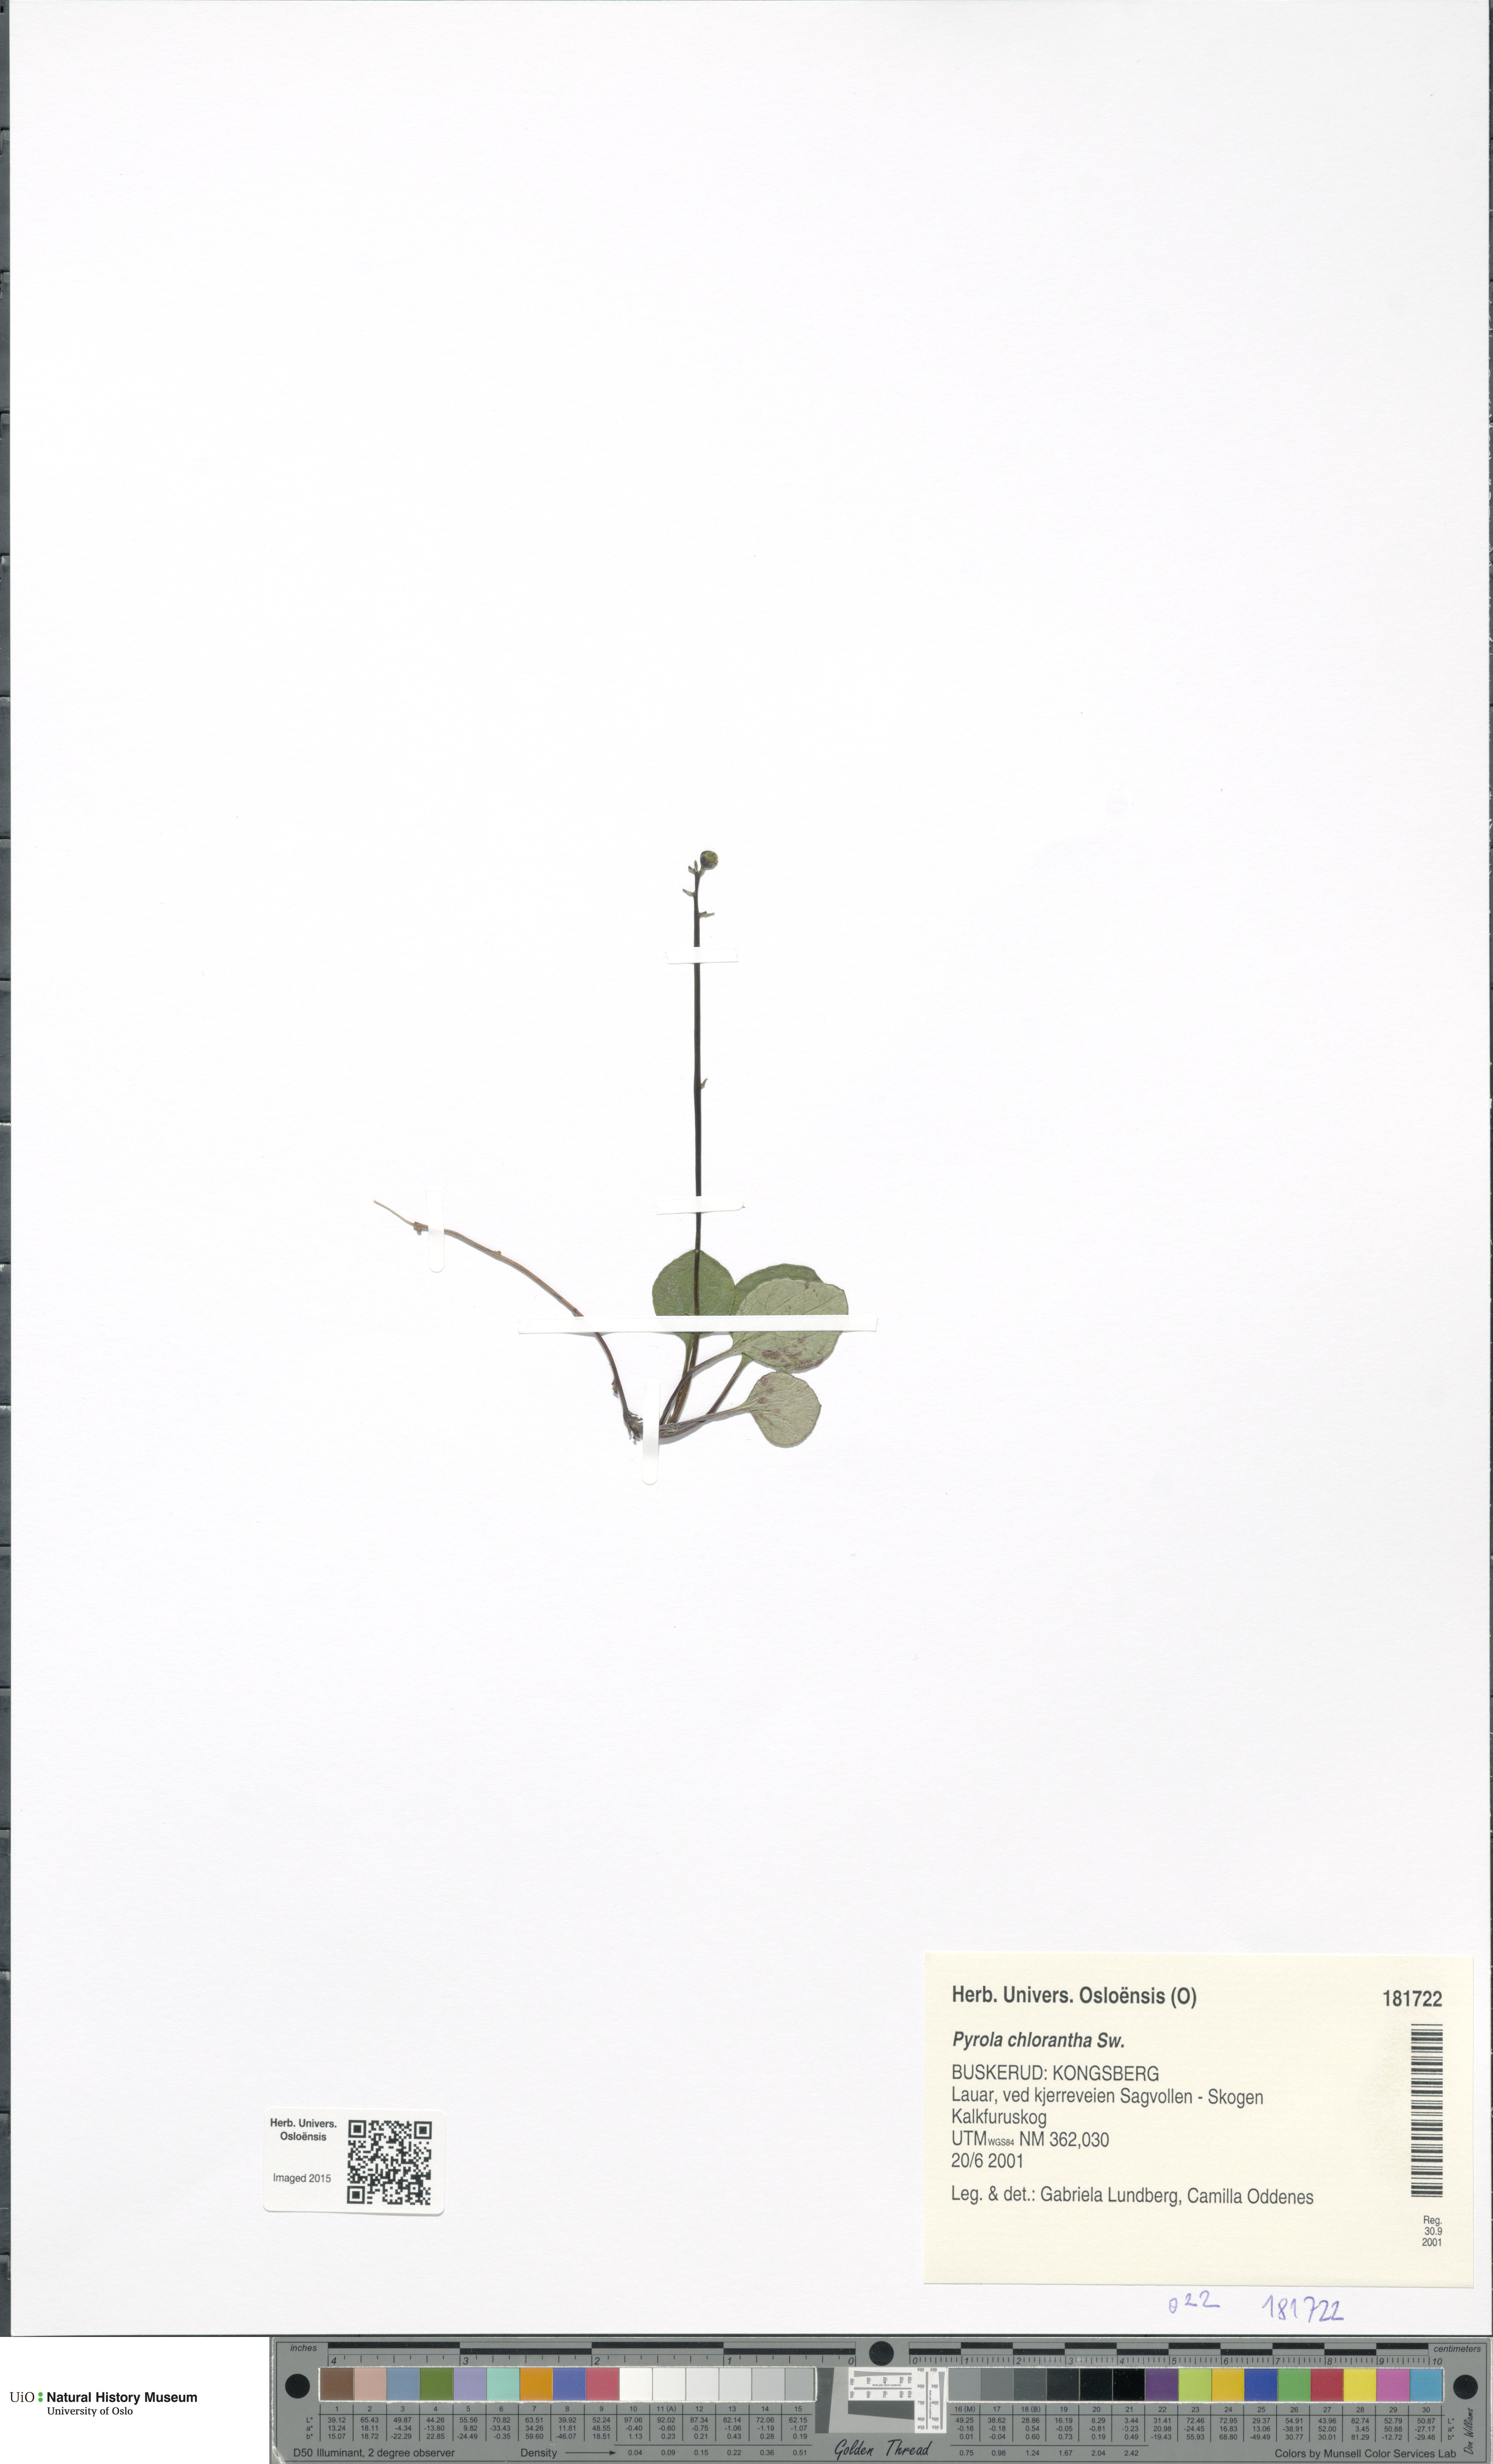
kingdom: Plantae
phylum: Tracheophyta
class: Magnoliopsida
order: Ericales
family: Ericaceae
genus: Pyrola
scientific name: Pyrola chlorantha
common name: Green wintergreen
